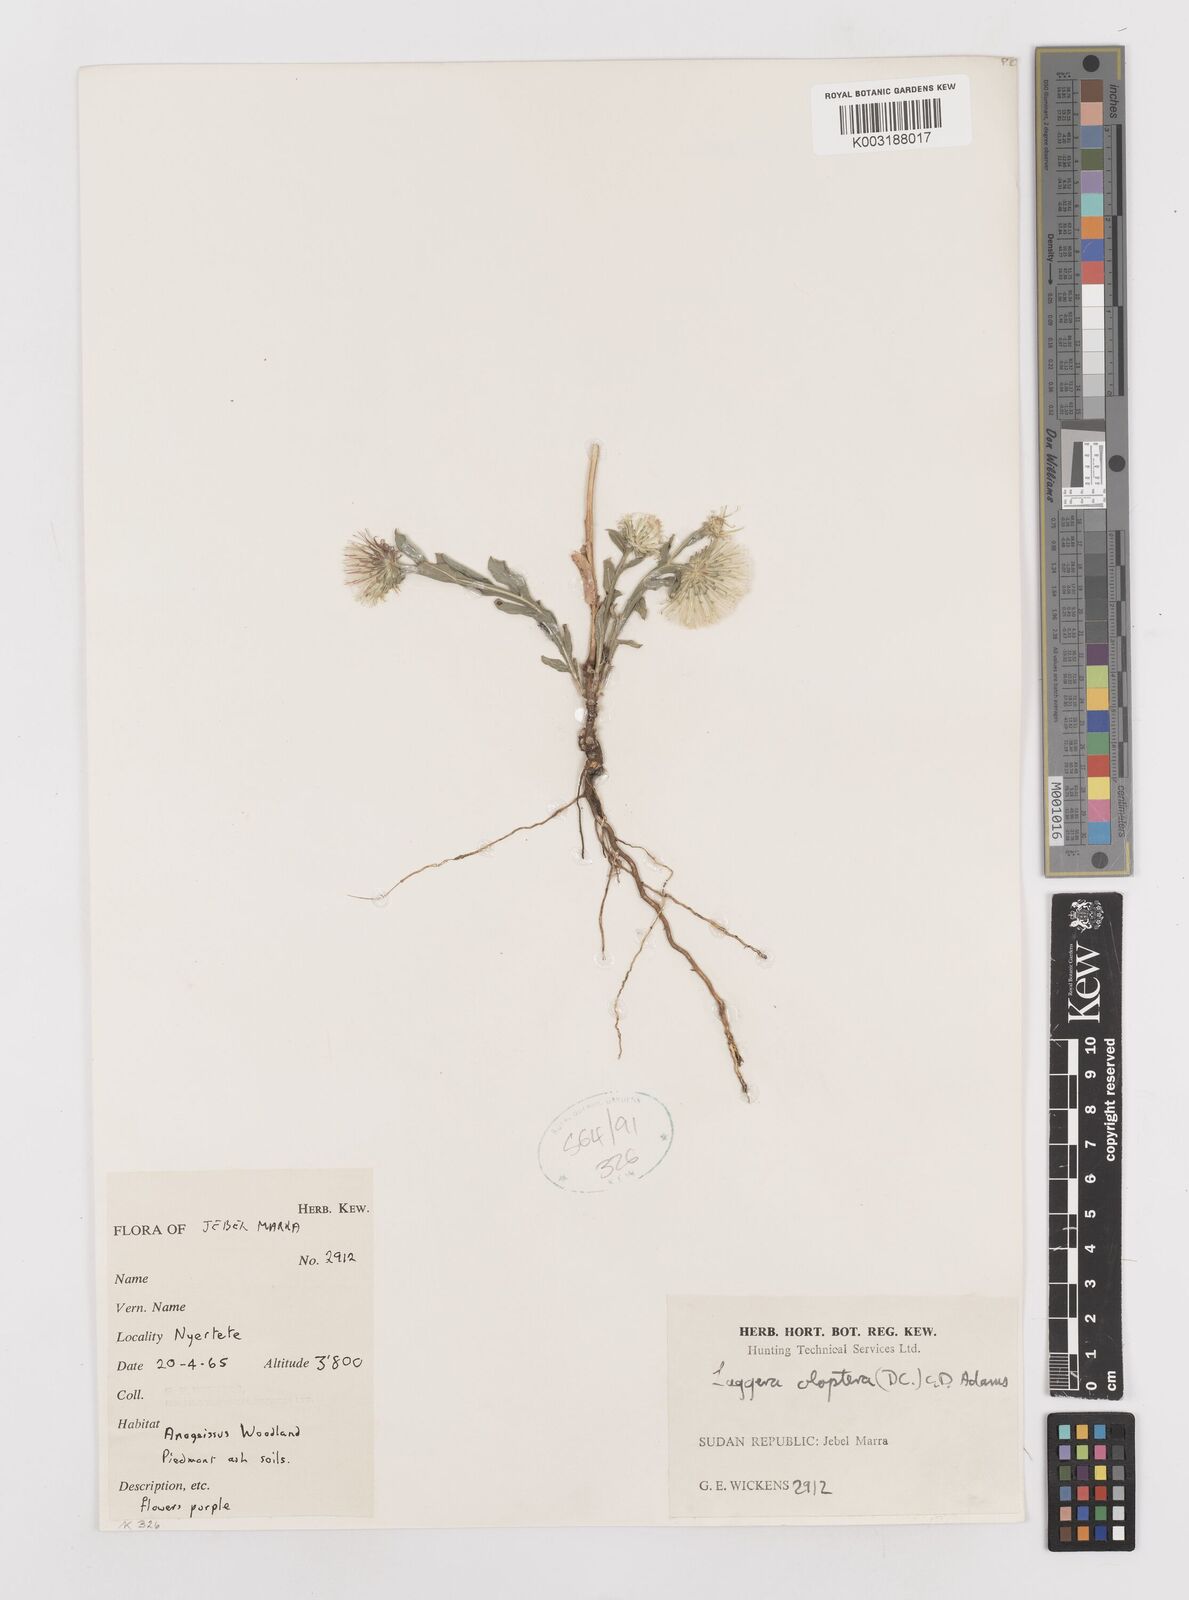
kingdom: Plantae
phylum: Tracheophyta
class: Magnoliopsida
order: Asterales
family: Asteraceae
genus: Laggera
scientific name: Laggera oloptera
